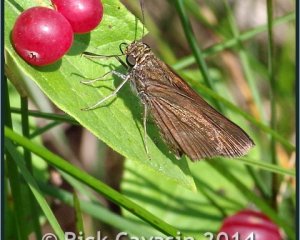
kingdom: Animalia
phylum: Arthropoda
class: Insecta
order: Lepidoptera
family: Hesperiidae
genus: Euphyes
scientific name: Euphyes vestris
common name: Dun Skipper
